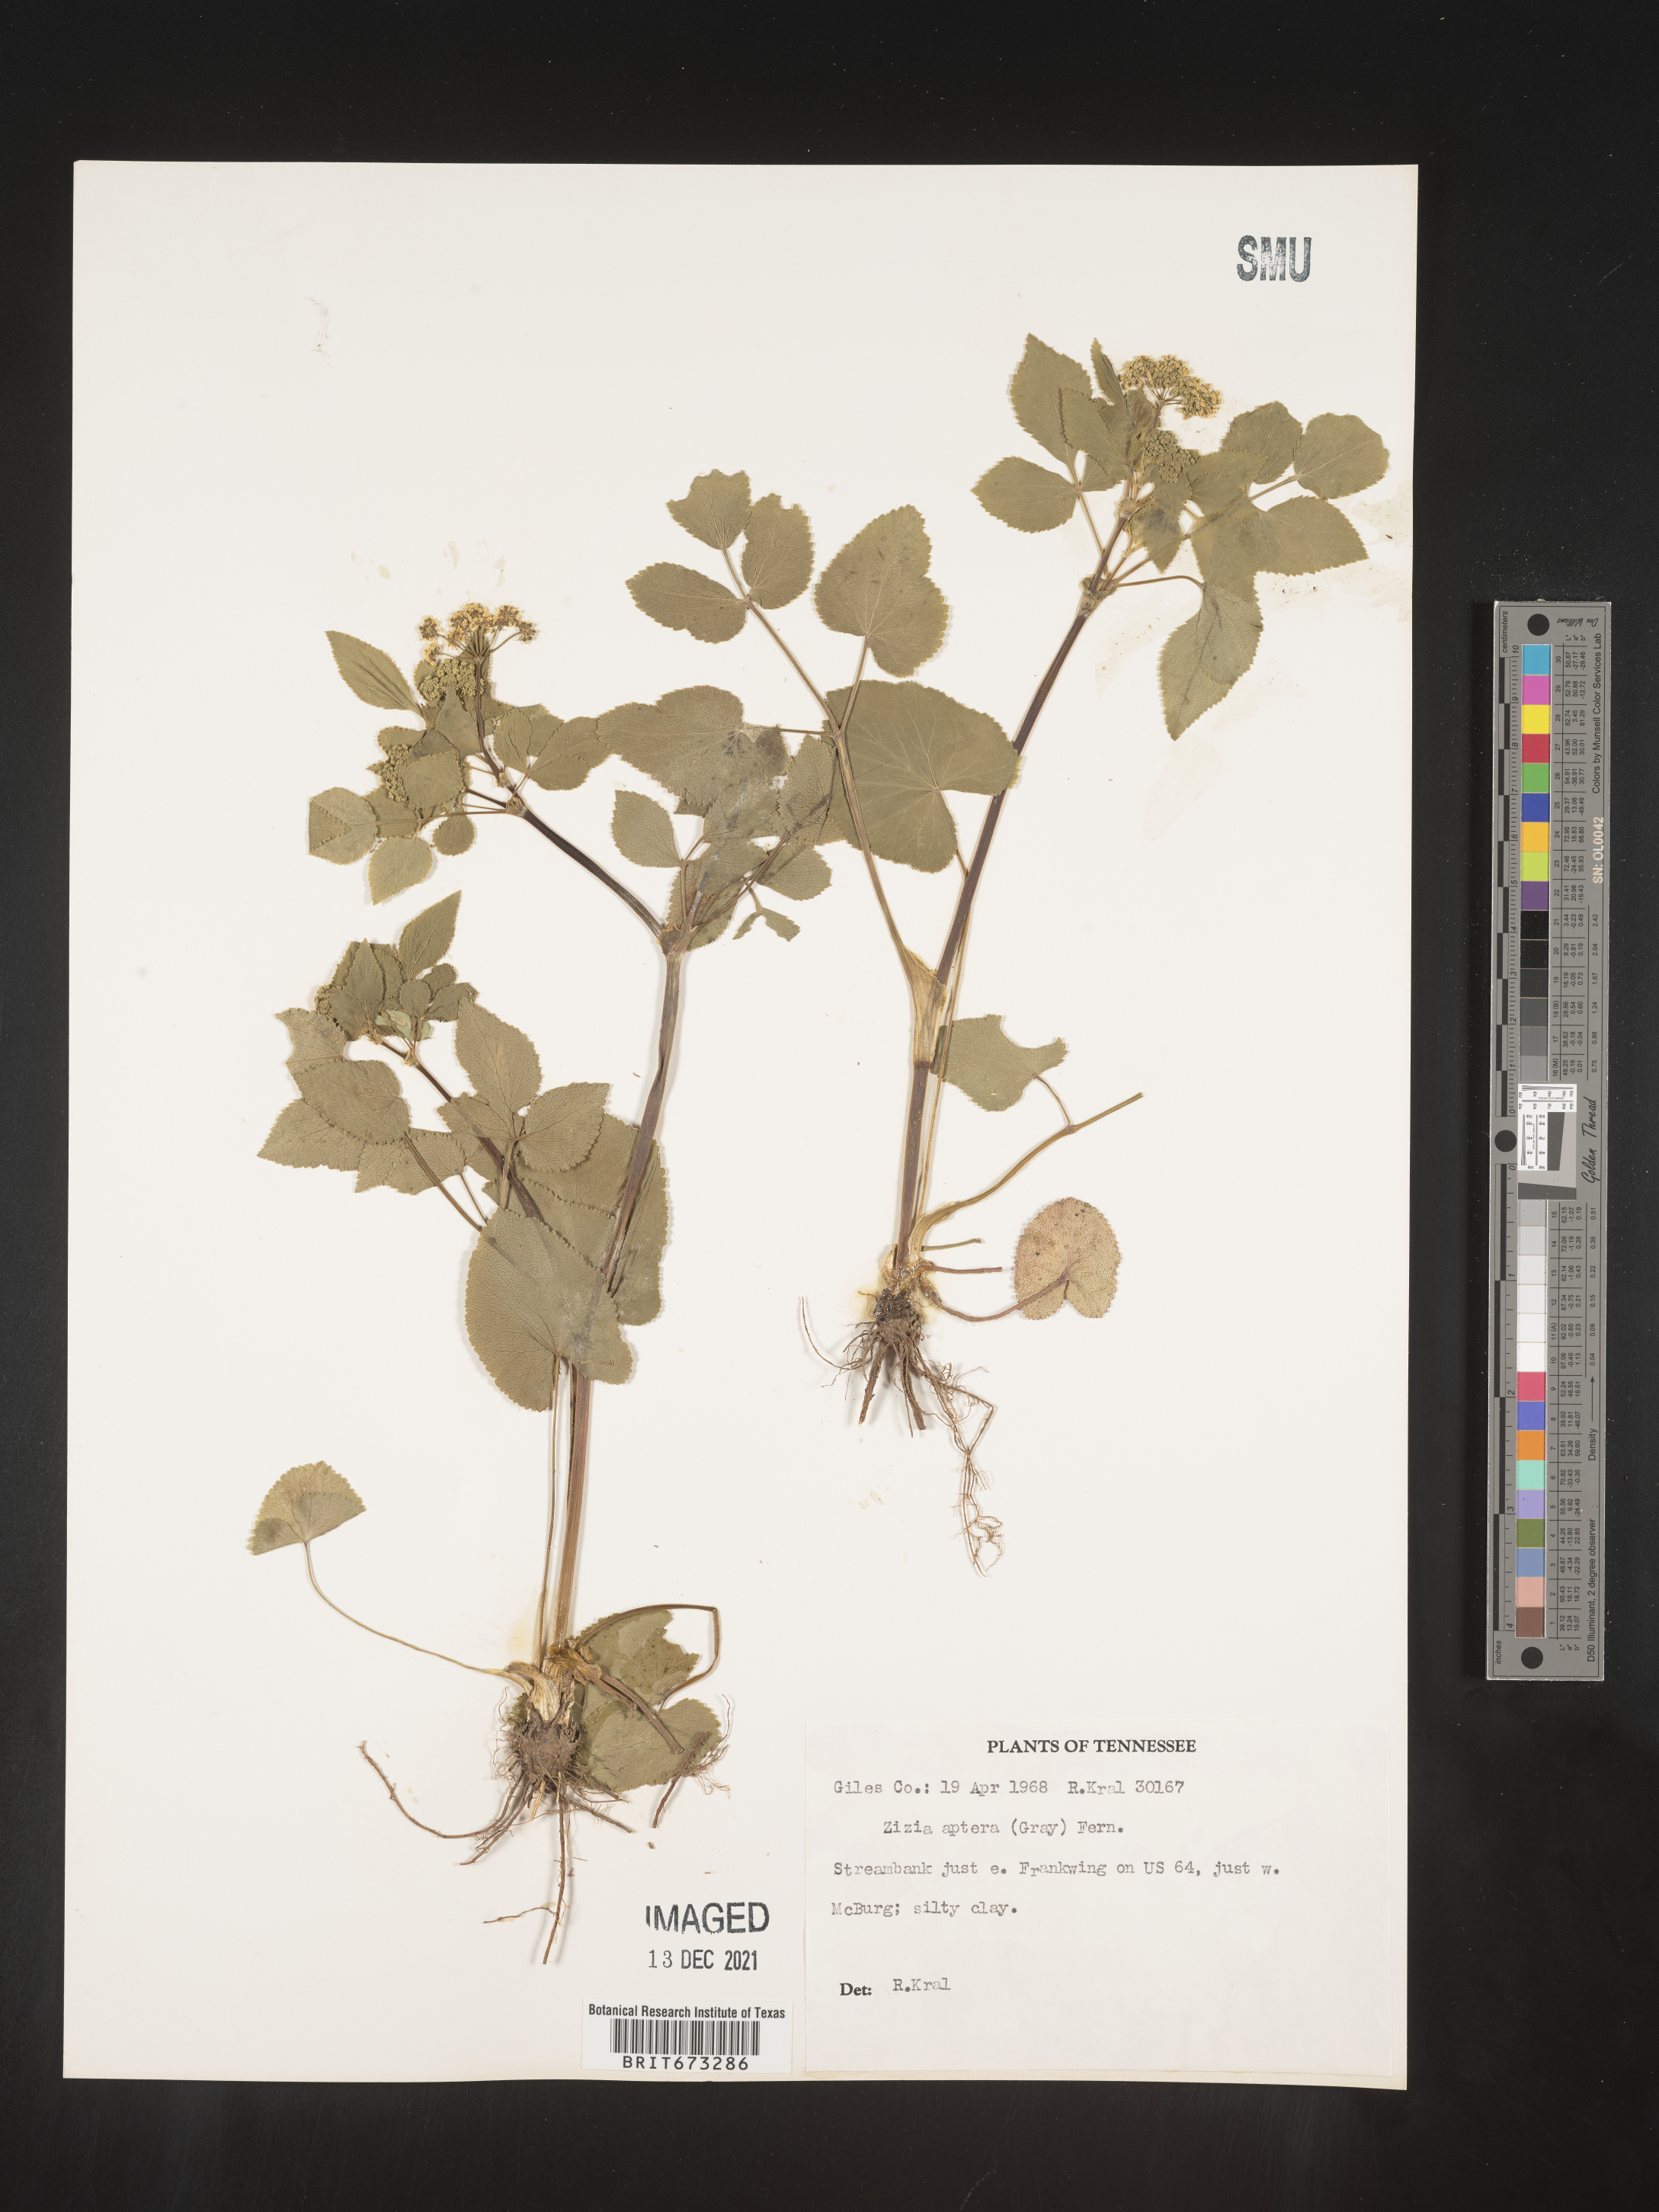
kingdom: Plantae
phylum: Tracheophyta
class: Magnoliopsida
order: Apiales
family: Apiaceae
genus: Zizia
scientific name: Zizia aptera
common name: Heart-leaved alexanders
